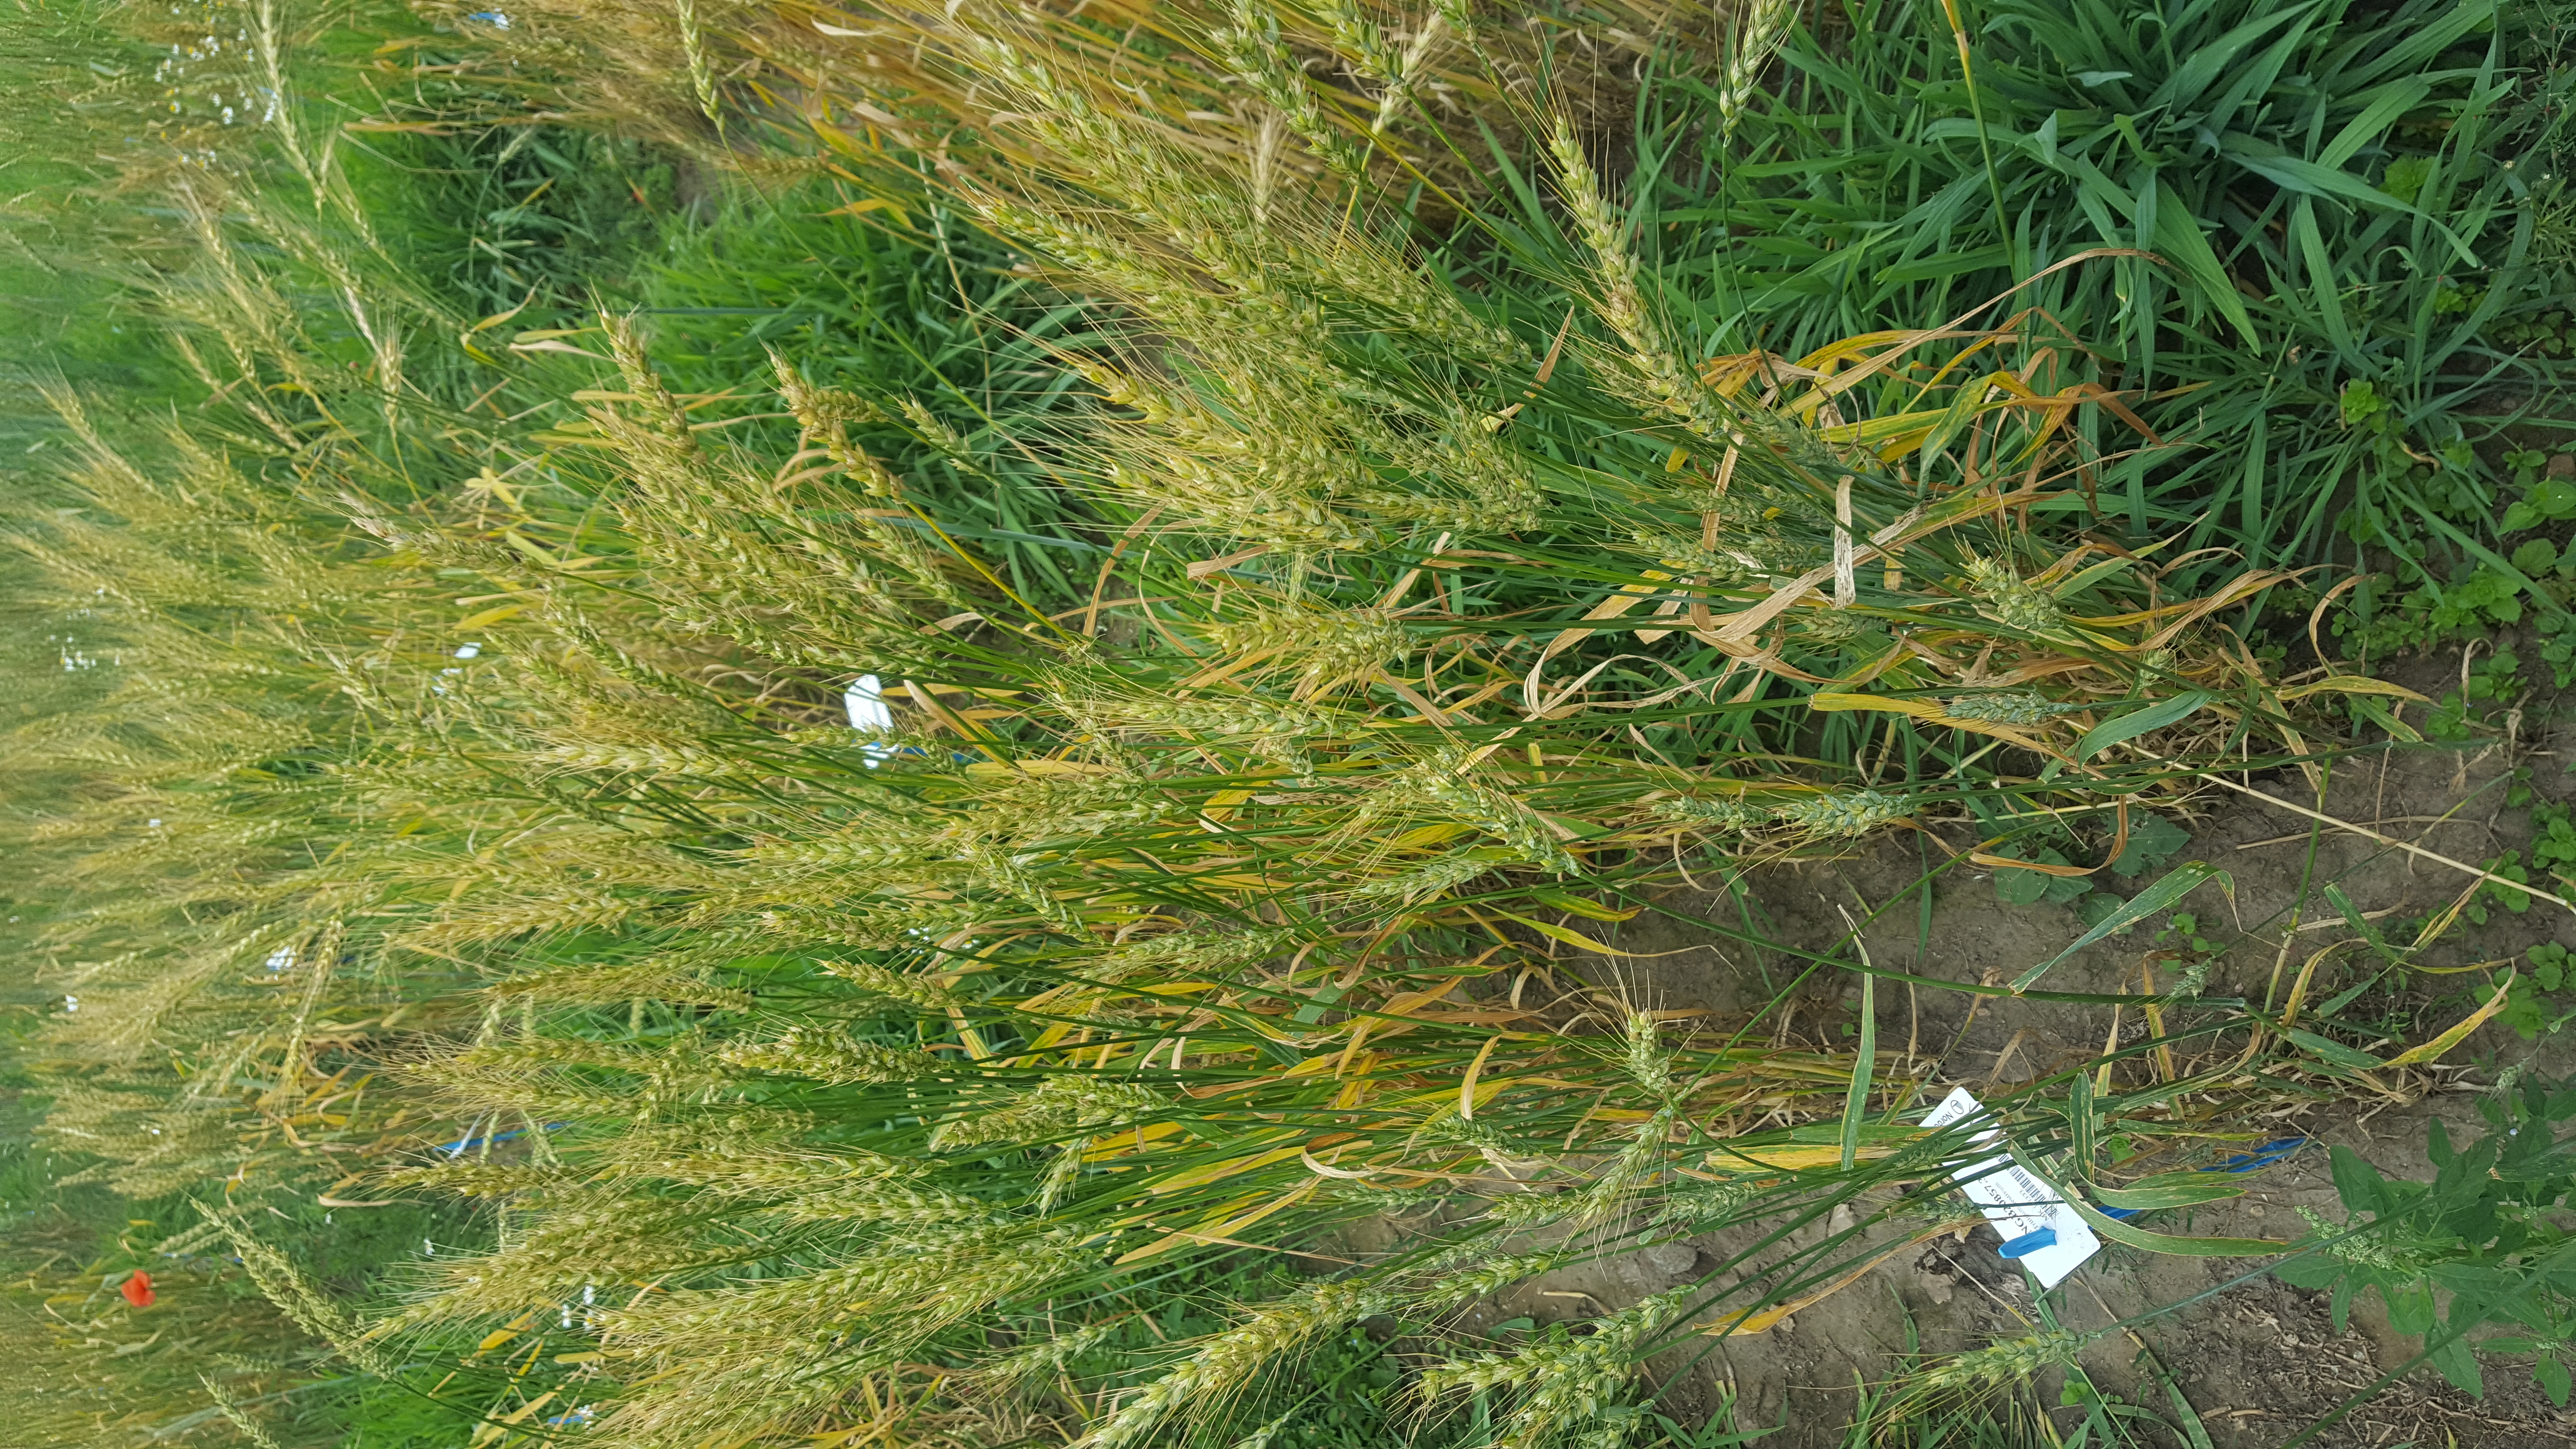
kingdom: Plantae
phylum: Tracheophyta
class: Liliopsida
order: Poales
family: Poaceae
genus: Triticum
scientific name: Triticum aestivum
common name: Common wheat
